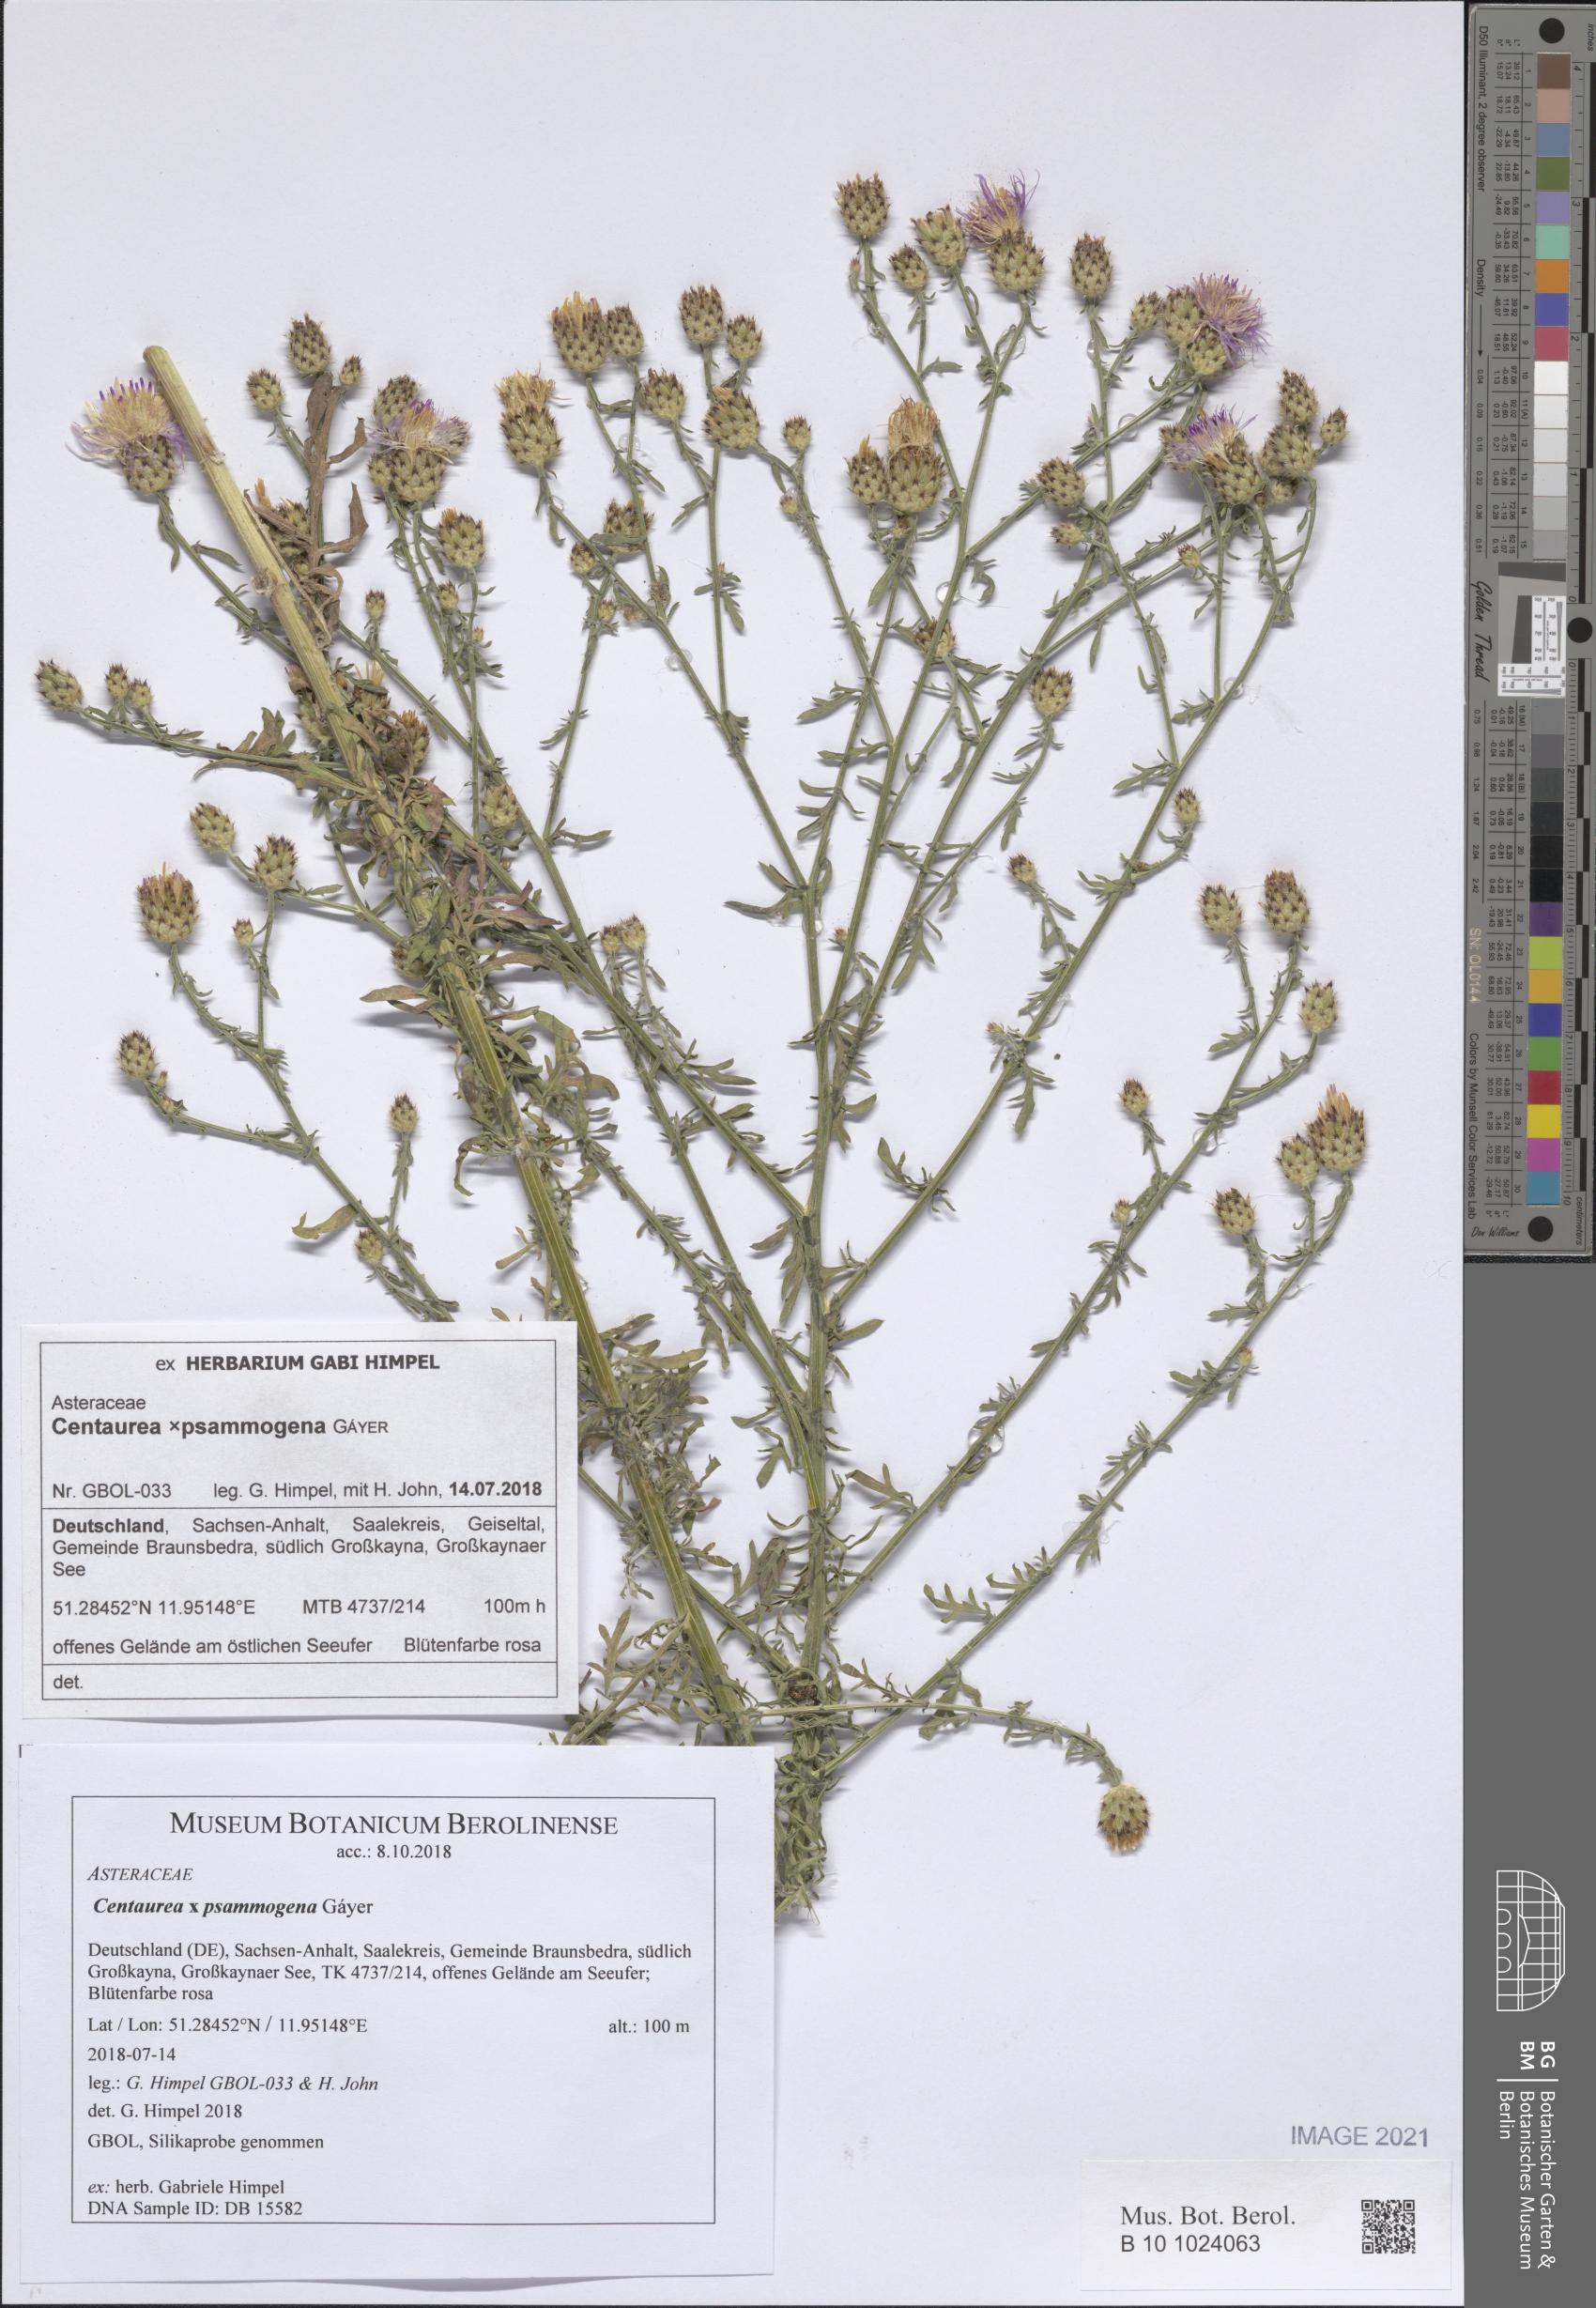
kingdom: Plantae
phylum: Tracheophyta
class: Magnoliopsida
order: Asterales
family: Asteraceae
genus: Centaurea
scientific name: Centaurea psammogena
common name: Diffuse-spotted knapweed hybrid
